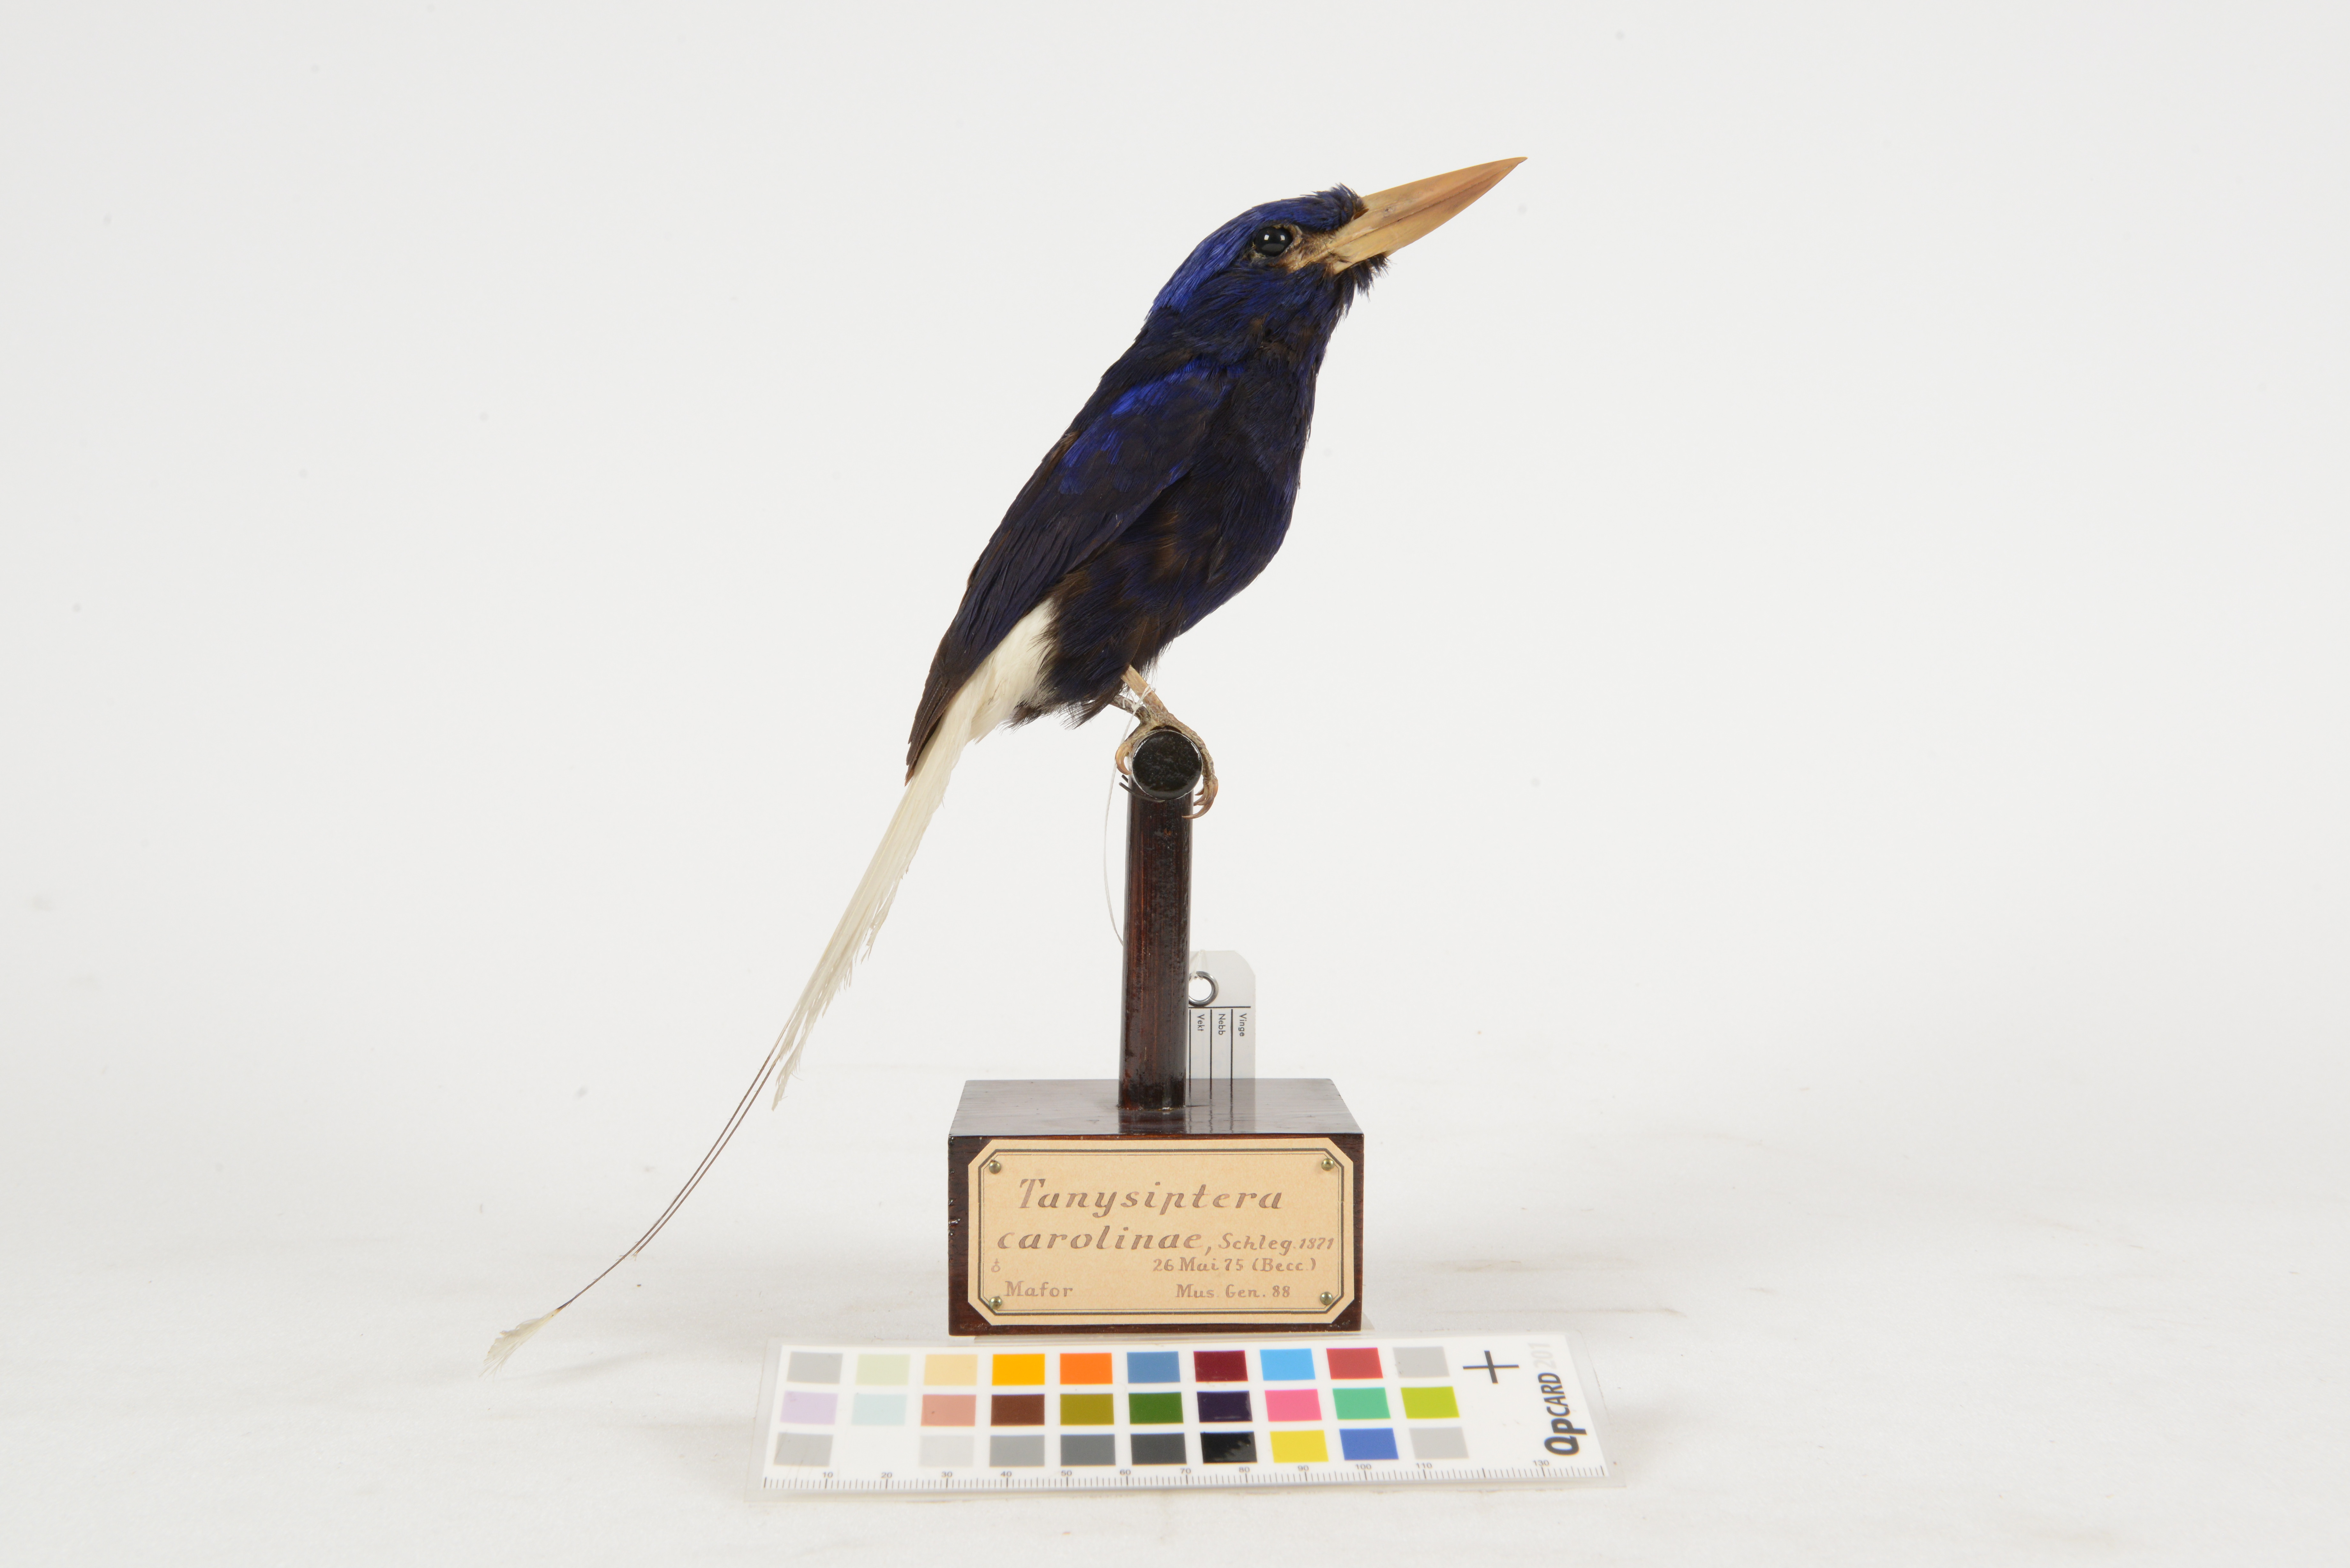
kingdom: Animalia
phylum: Chordata
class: Aves
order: Coraciiformes
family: Alcedinidae
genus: Tanysiptera
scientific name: Tanysiptera carolinae
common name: Numfor paradise-kingfisher
